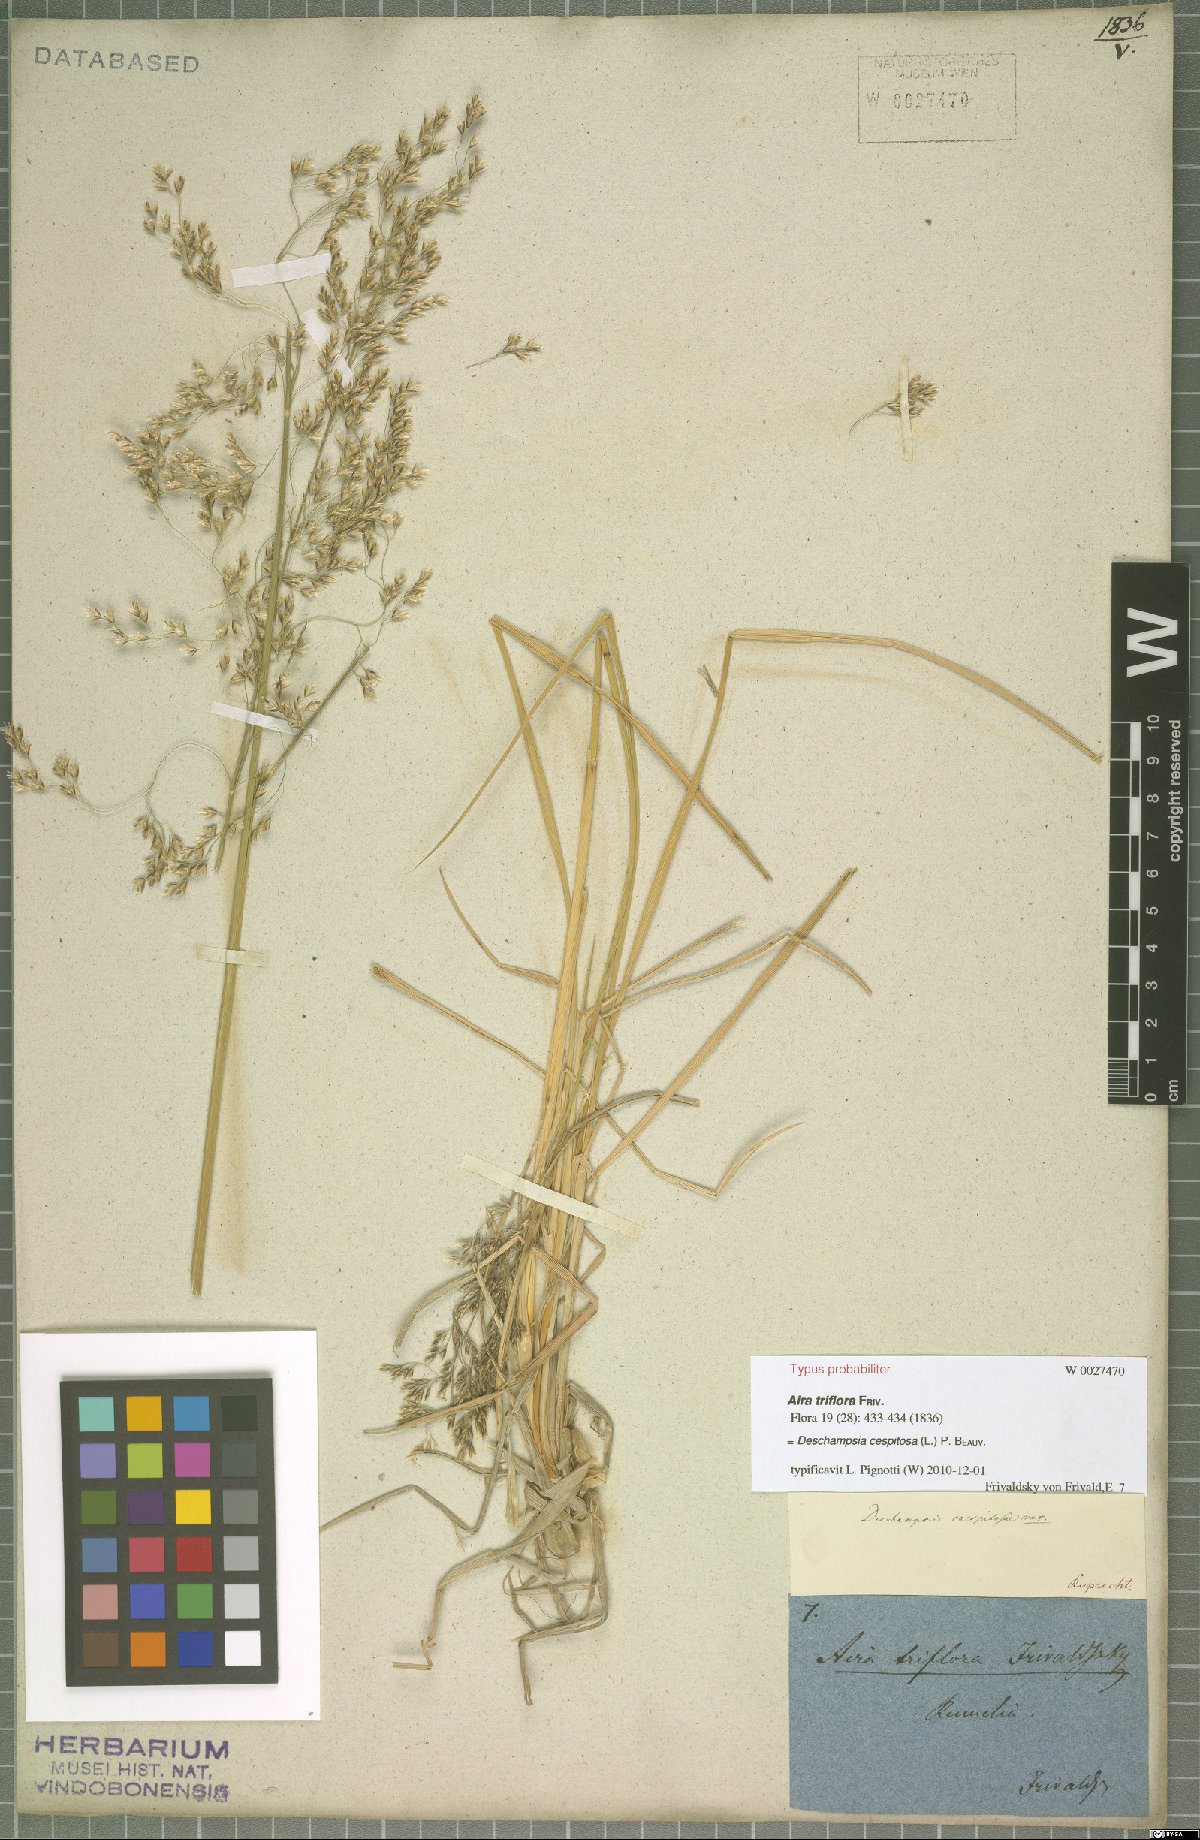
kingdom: Plantae
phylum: Tracheophyta
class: Liliopsida
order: Poales
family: Poaceae
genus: Deschampsia
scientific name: Deschampsia cespitosa
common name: Tufted hair-grass
